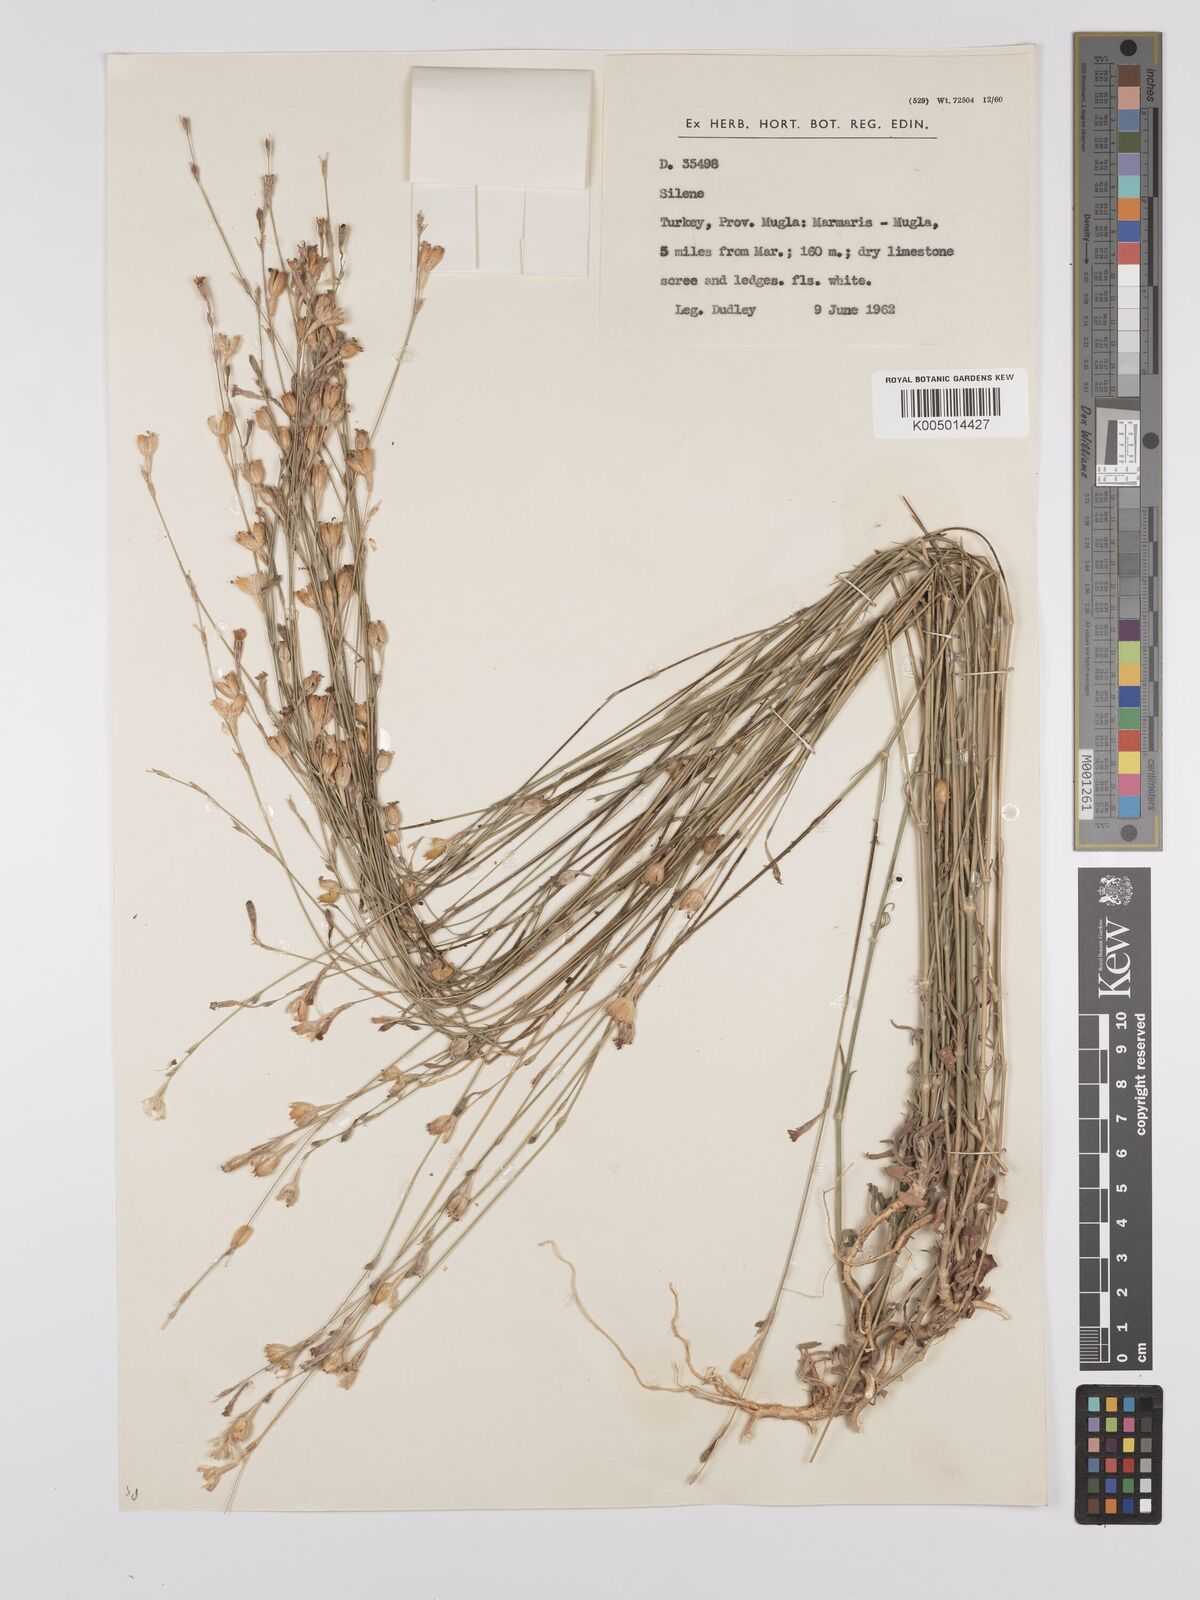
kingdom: Plantae
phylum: Tracheophyta
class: Magnoliopsida
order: Caryophyllales
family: Caryophyllaceae
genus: Silene
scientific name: Silene
